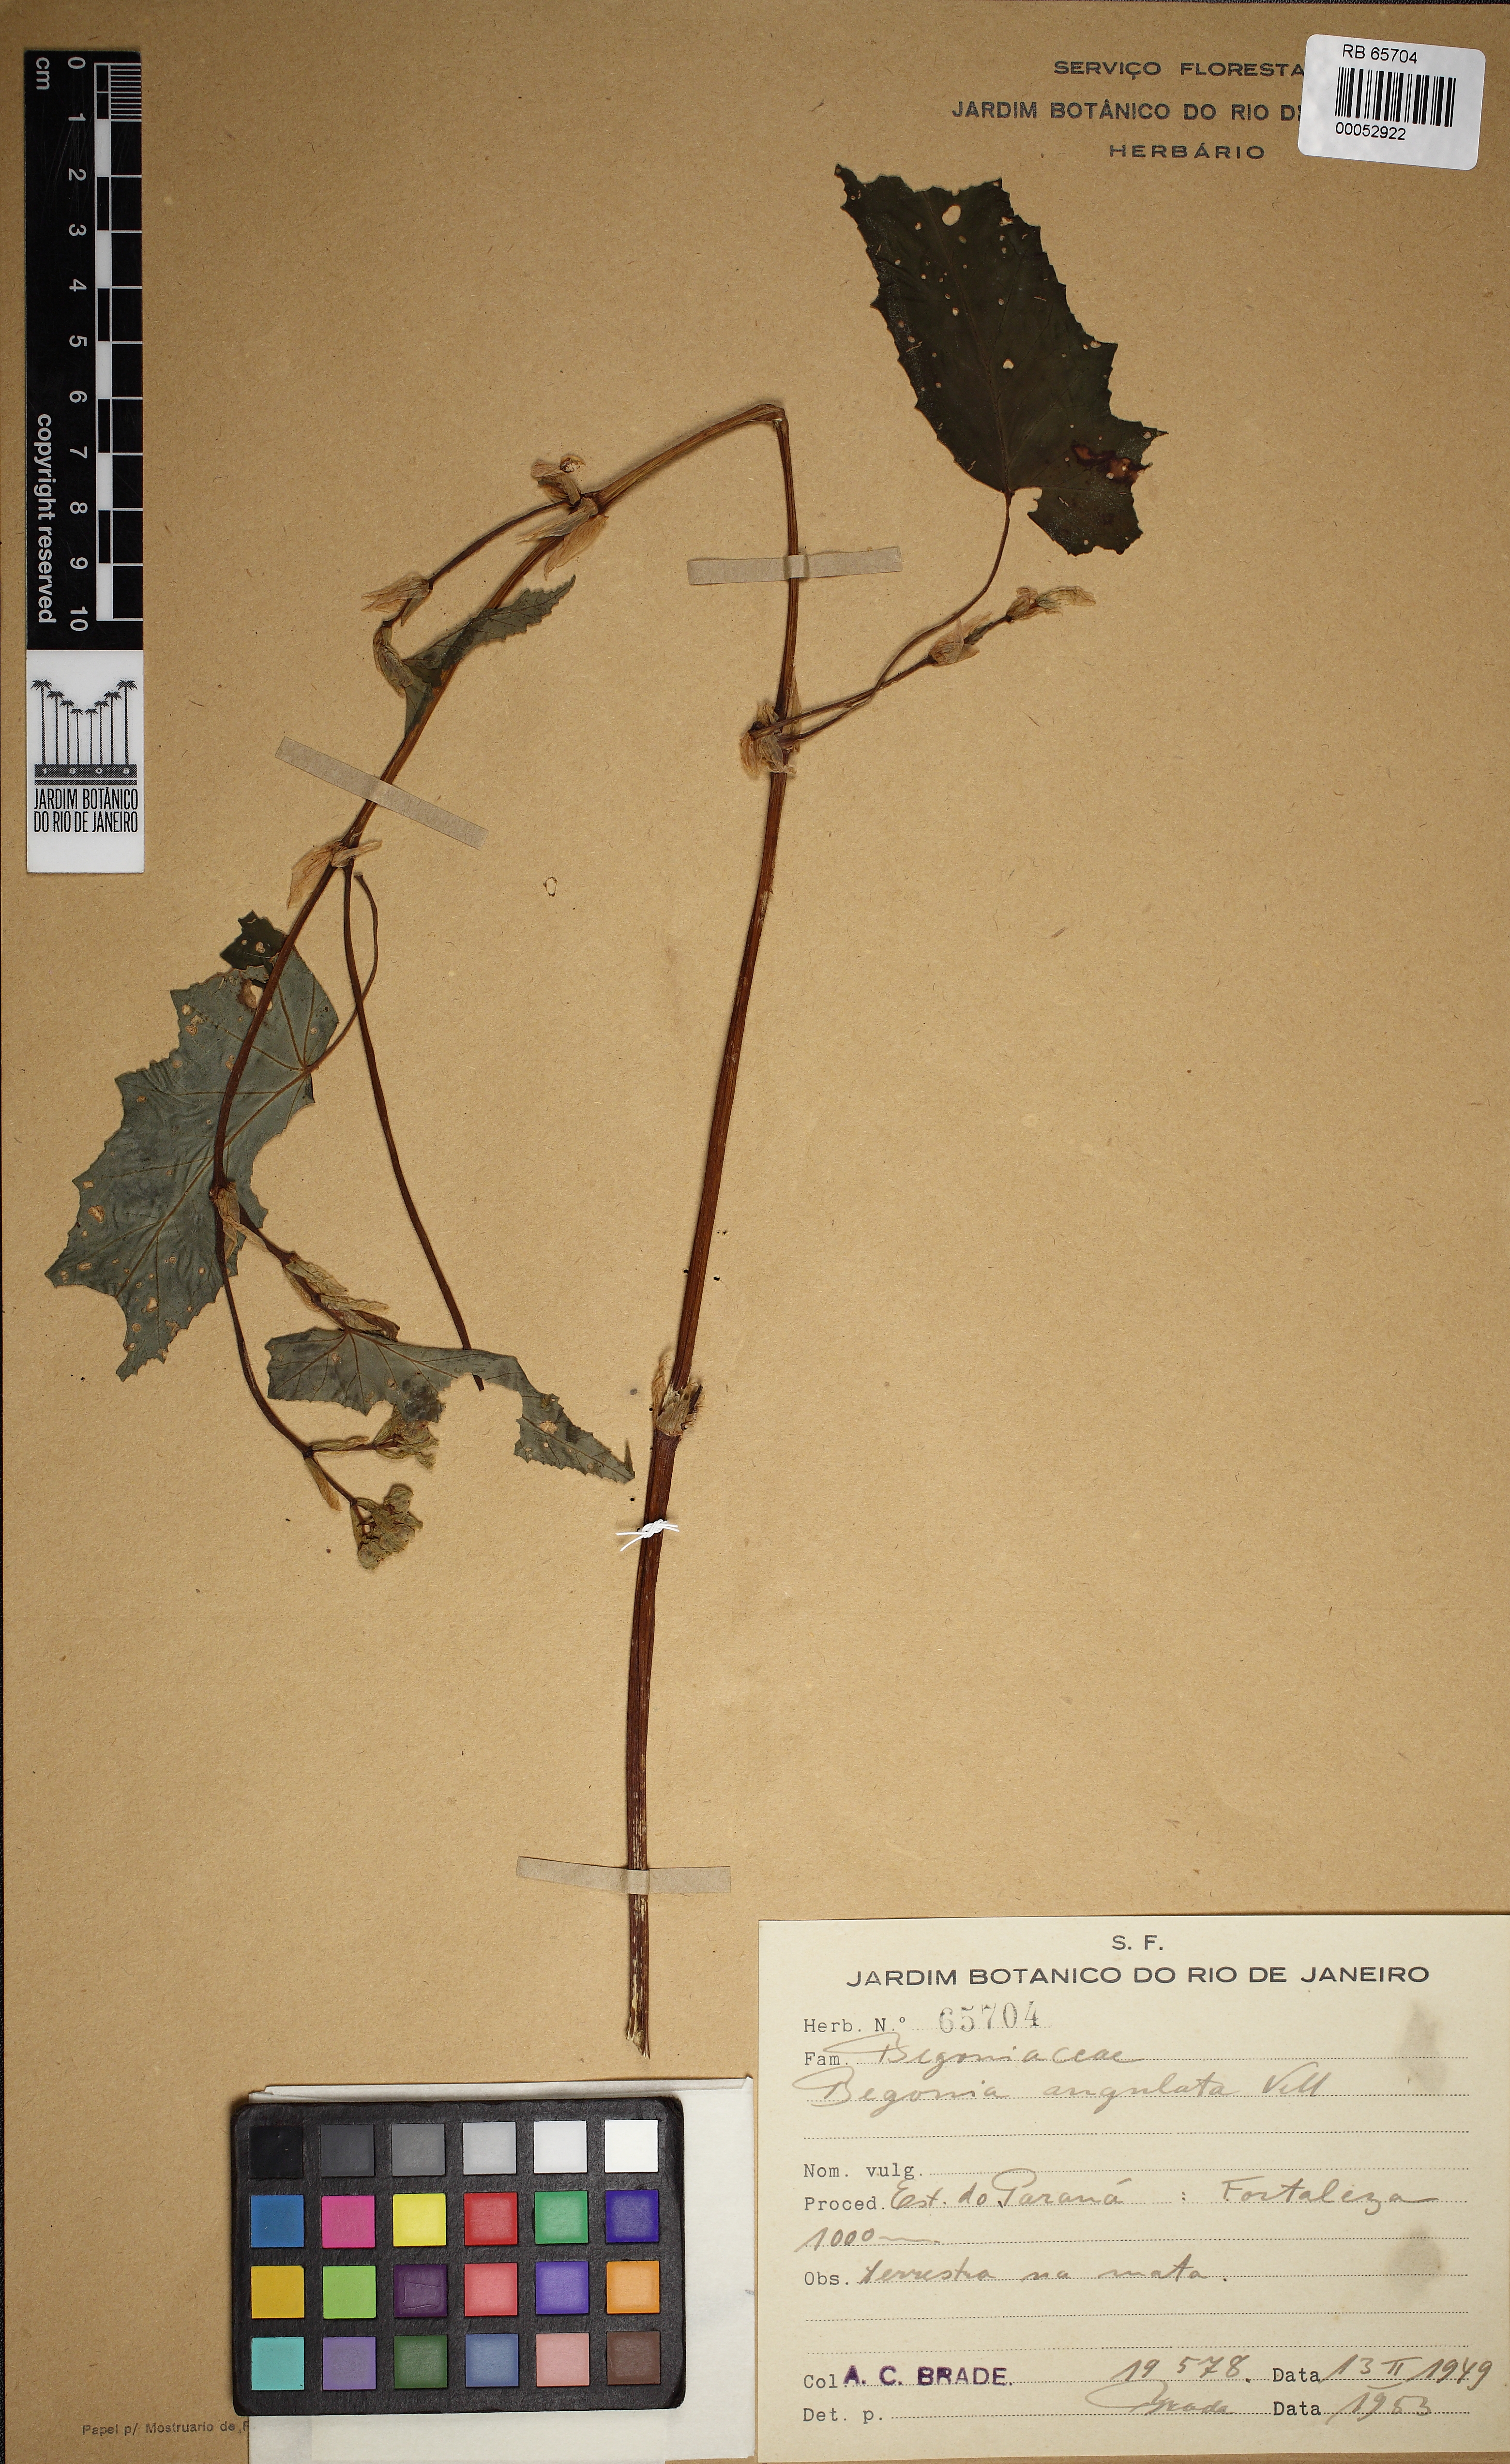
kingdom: Plantae
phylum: Tracheophyta
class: Magnoliopsida
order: Cucurbitales
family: Begoniaceae
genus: Begonia
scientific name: Begonia angulata
